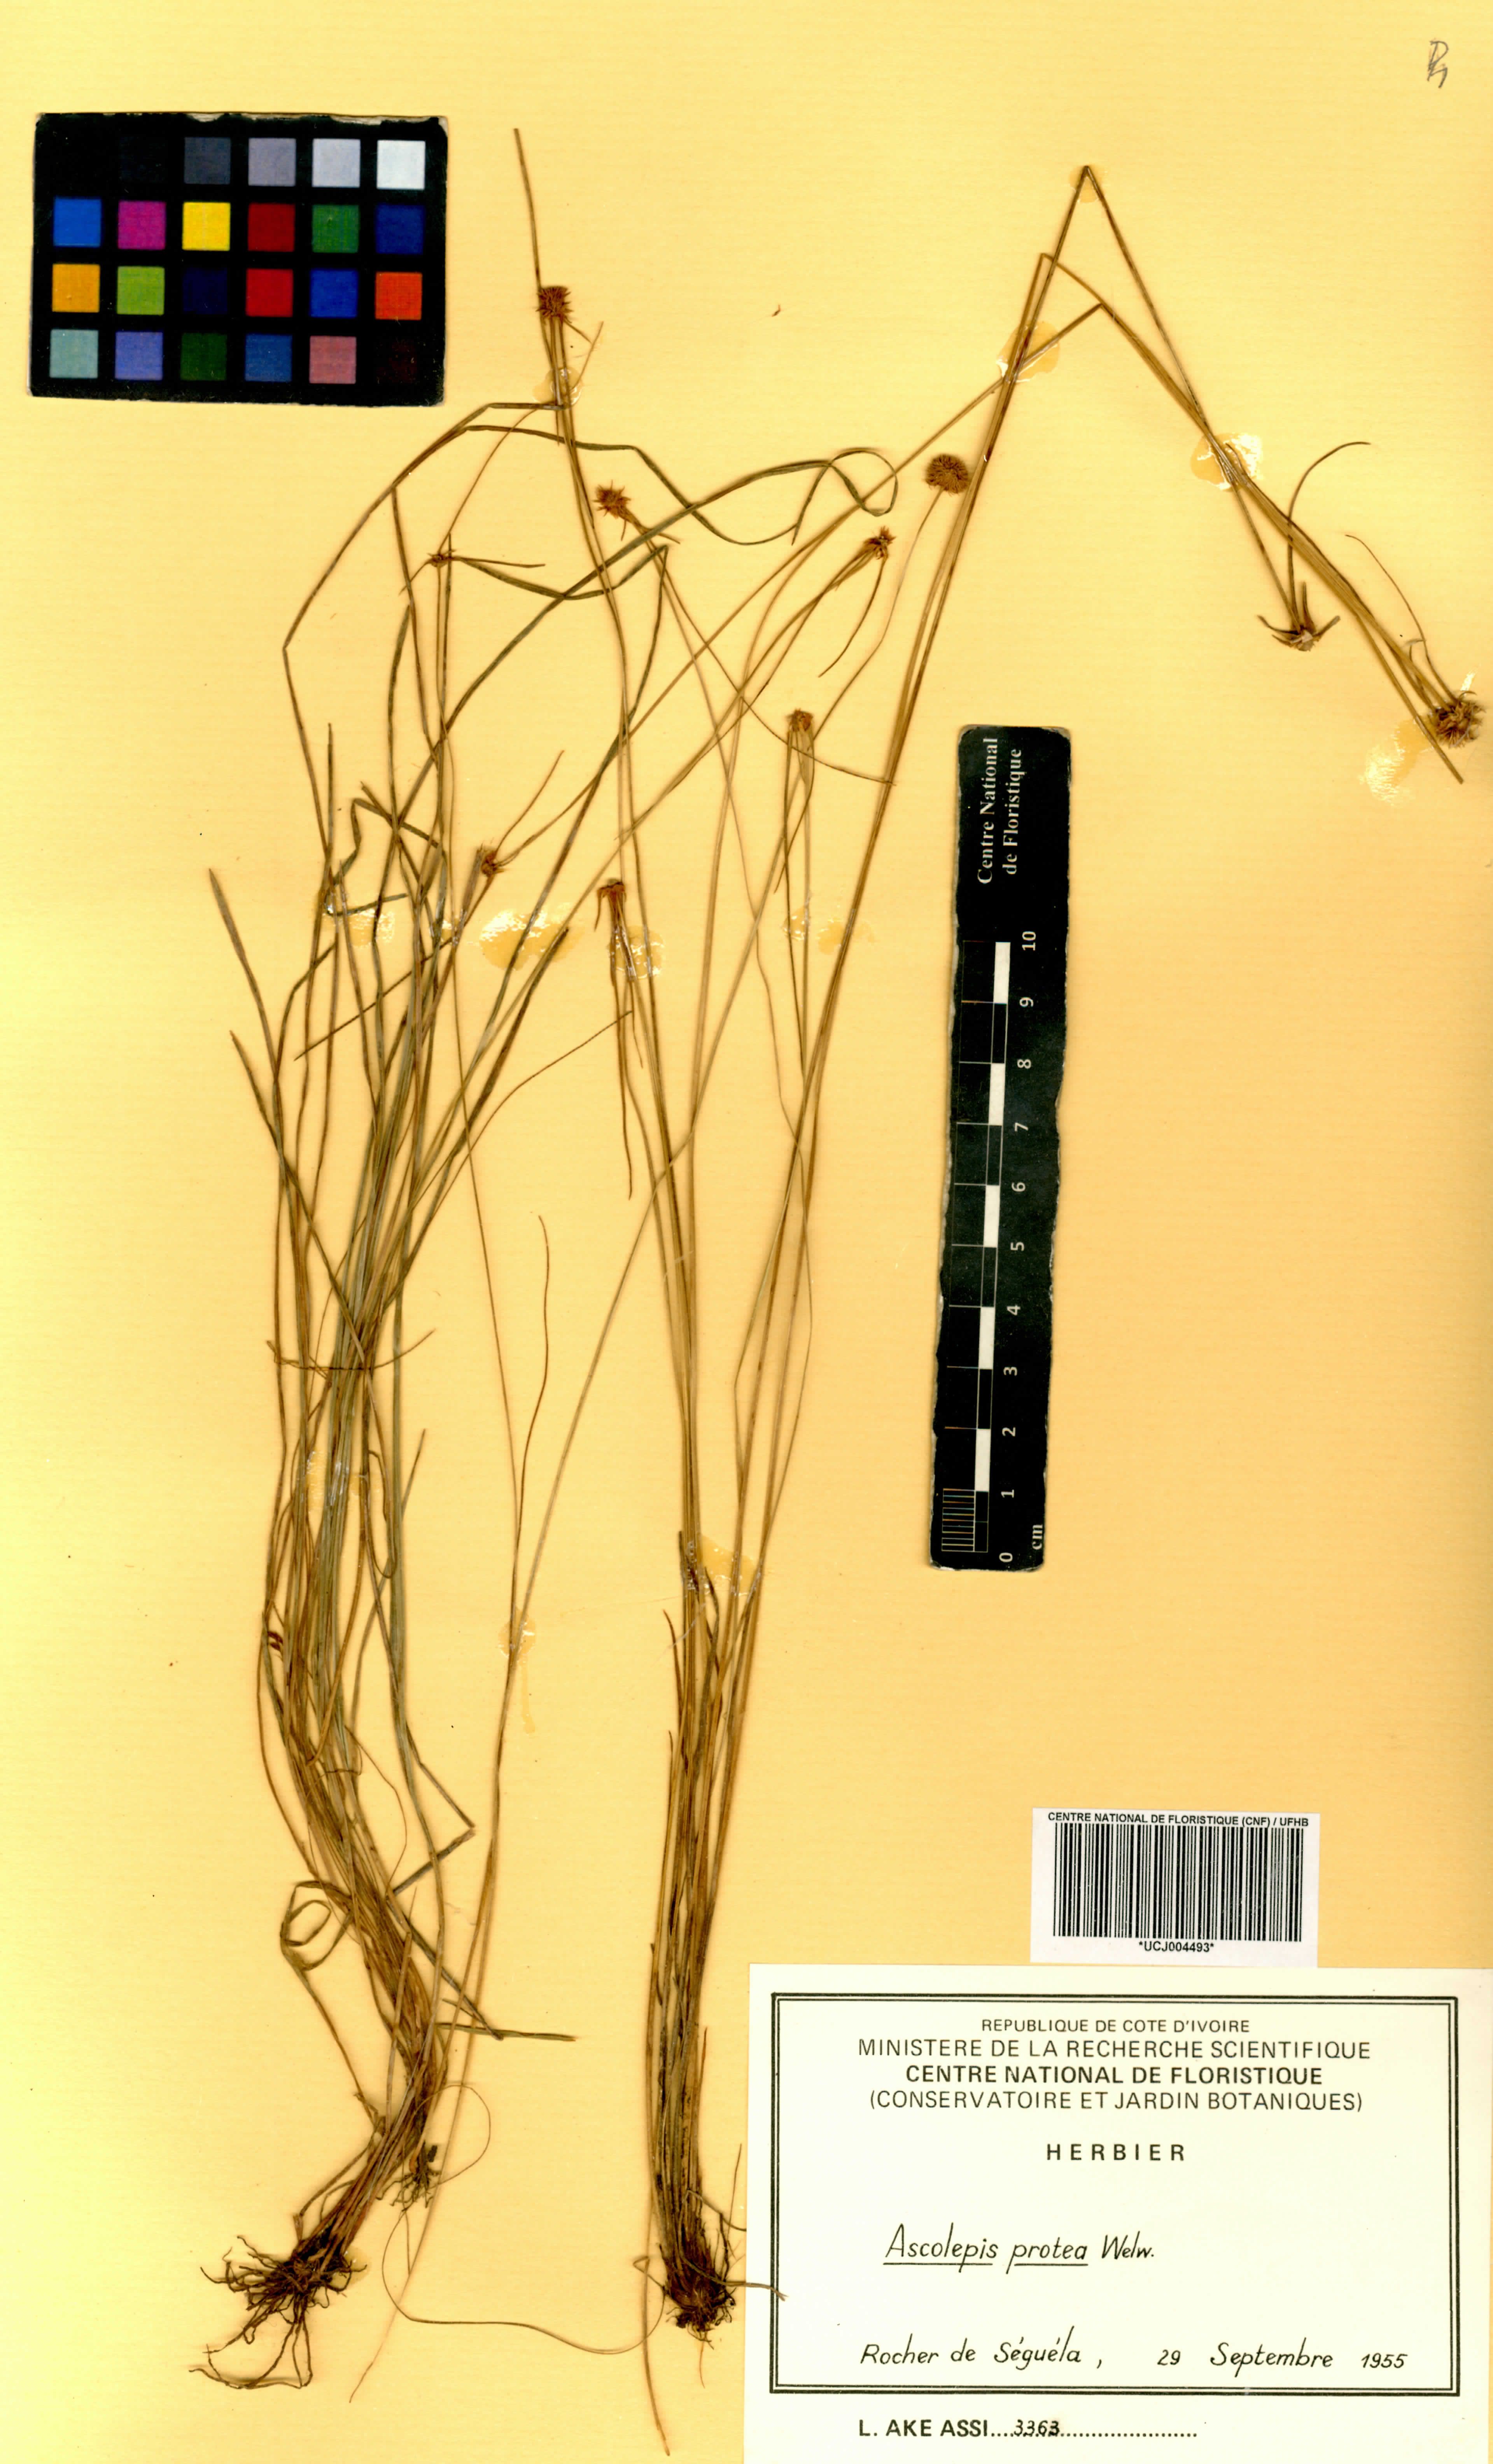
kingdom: Plantae
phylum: Tracheophyta
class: Liliopsida
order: Poales
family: Cyperaceae
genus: Cyperus
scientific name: Cyperus proteus
